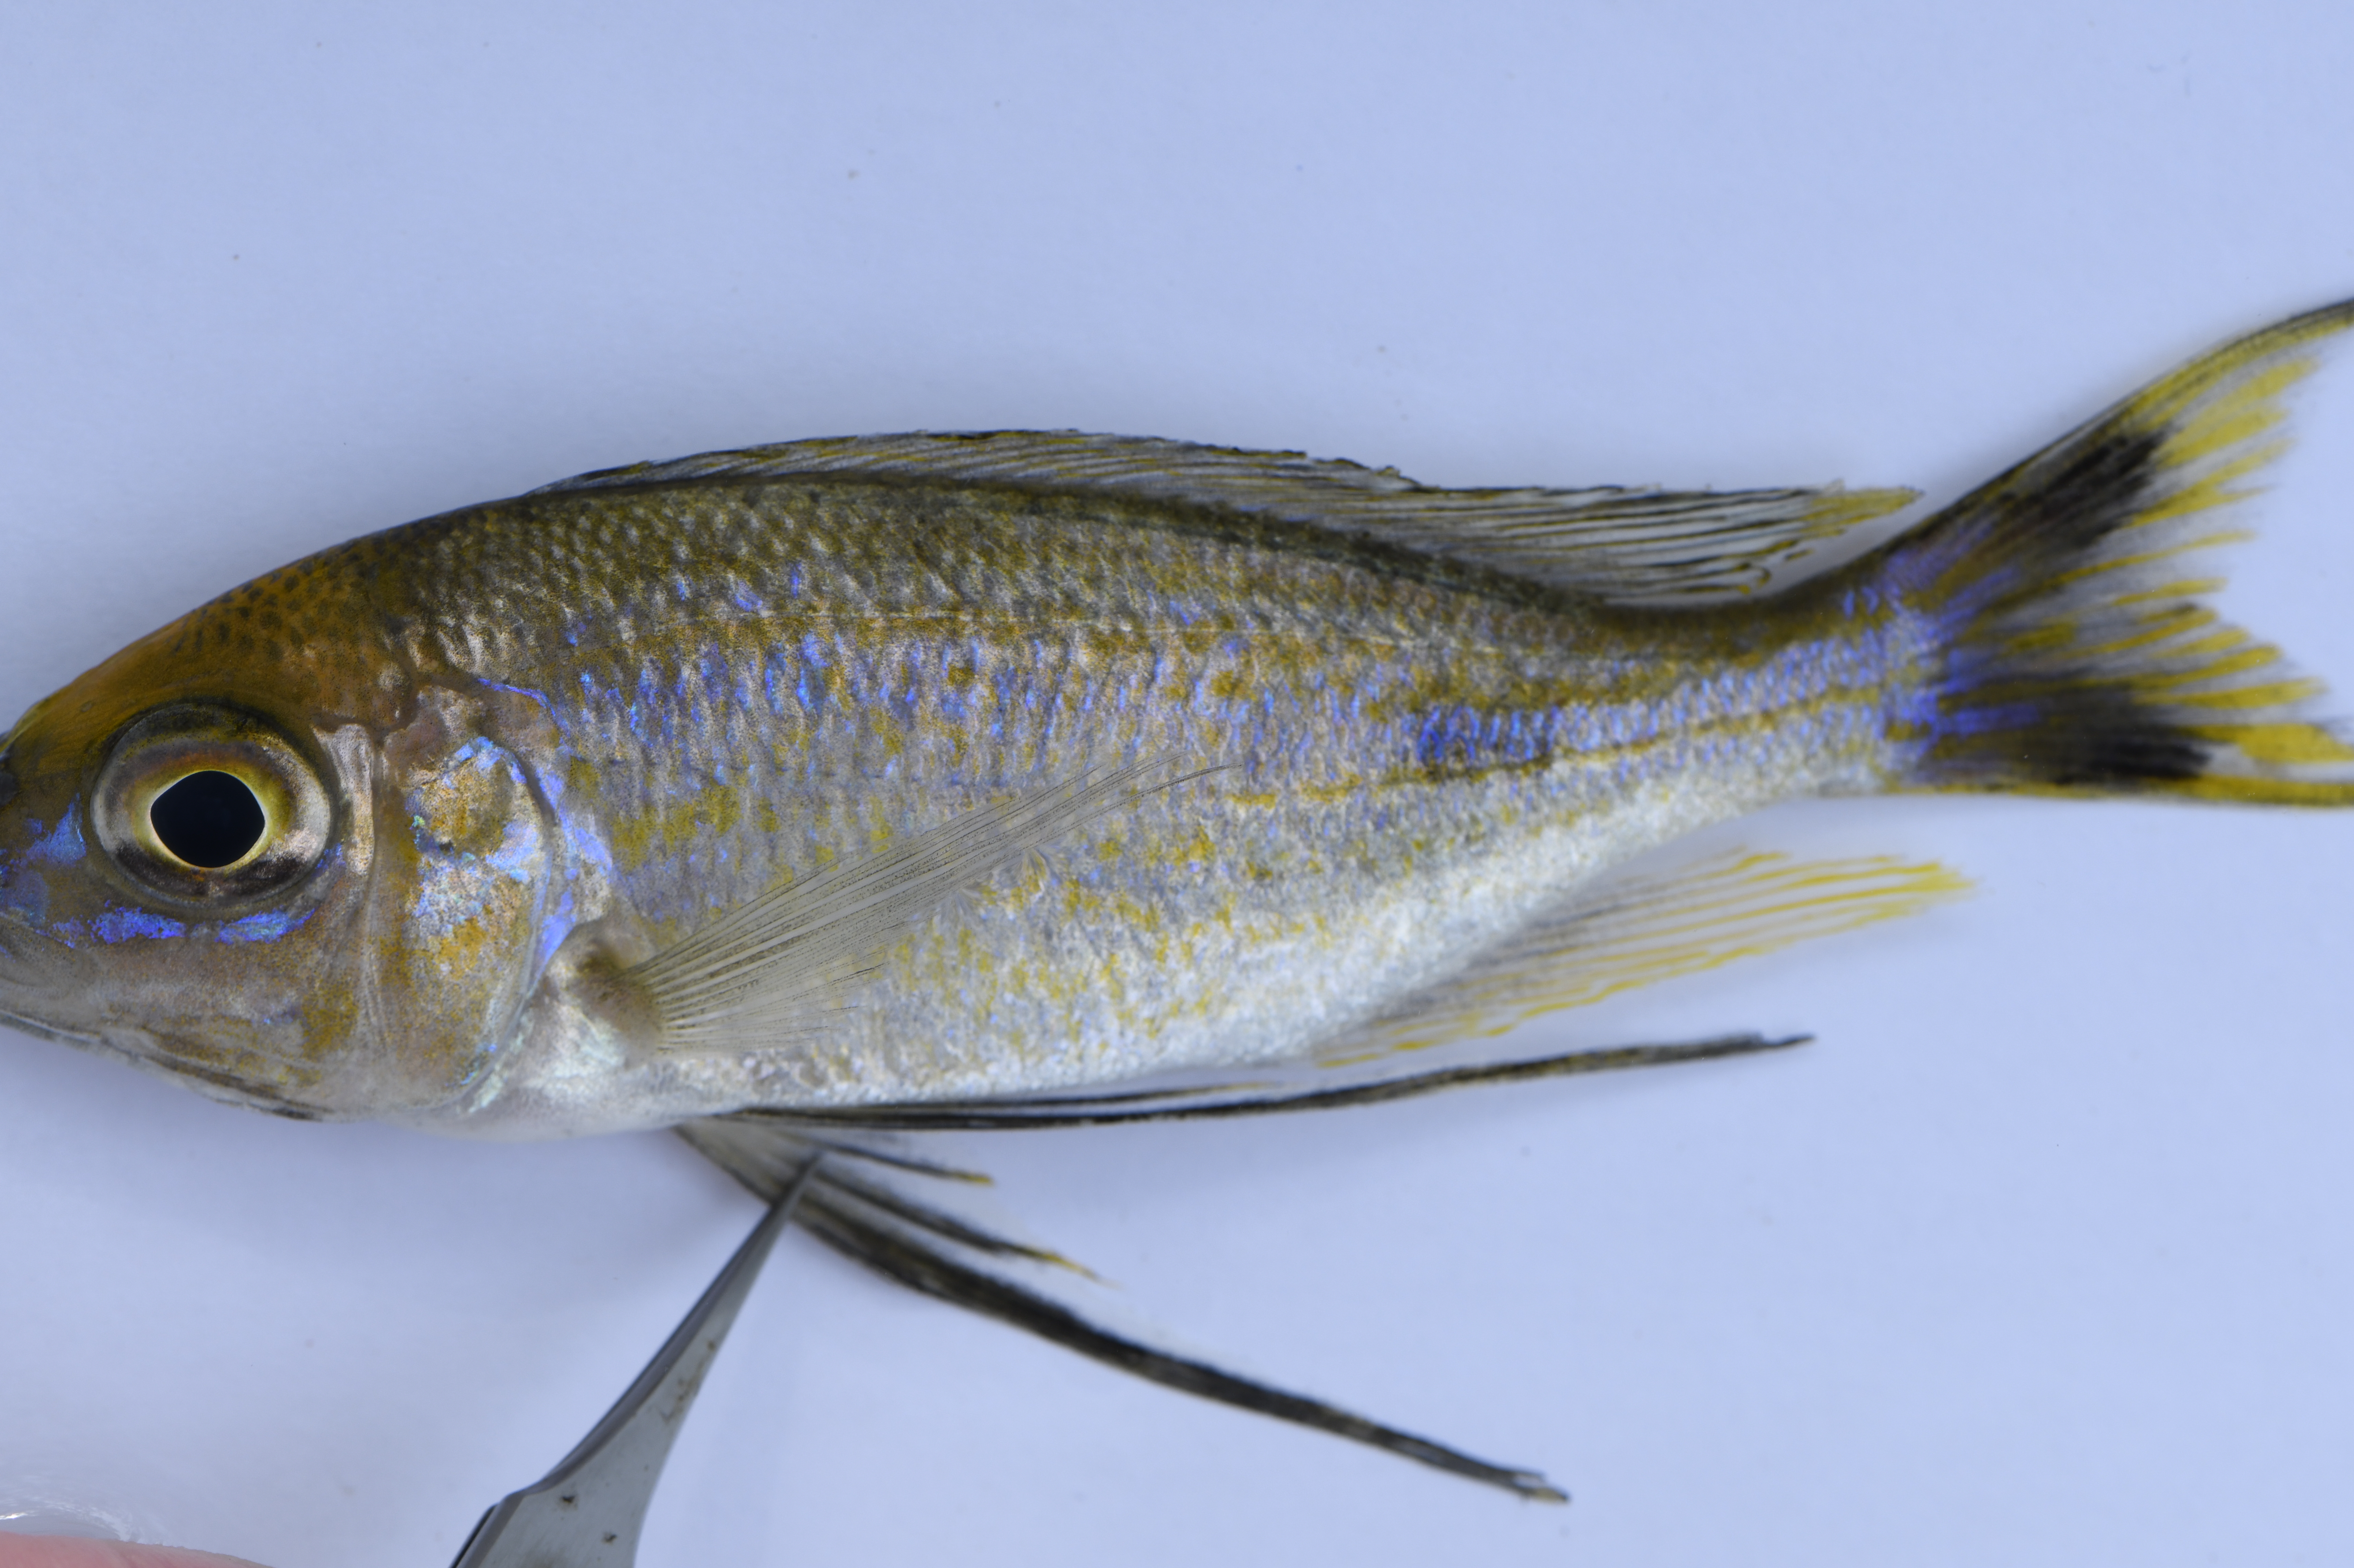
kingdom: Animalia
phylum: Chordata
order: Perciformes
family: Cichlidae
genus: Cyathopharynx
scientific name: Cyathopharynx furcifer
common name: Featherfin cichlid
